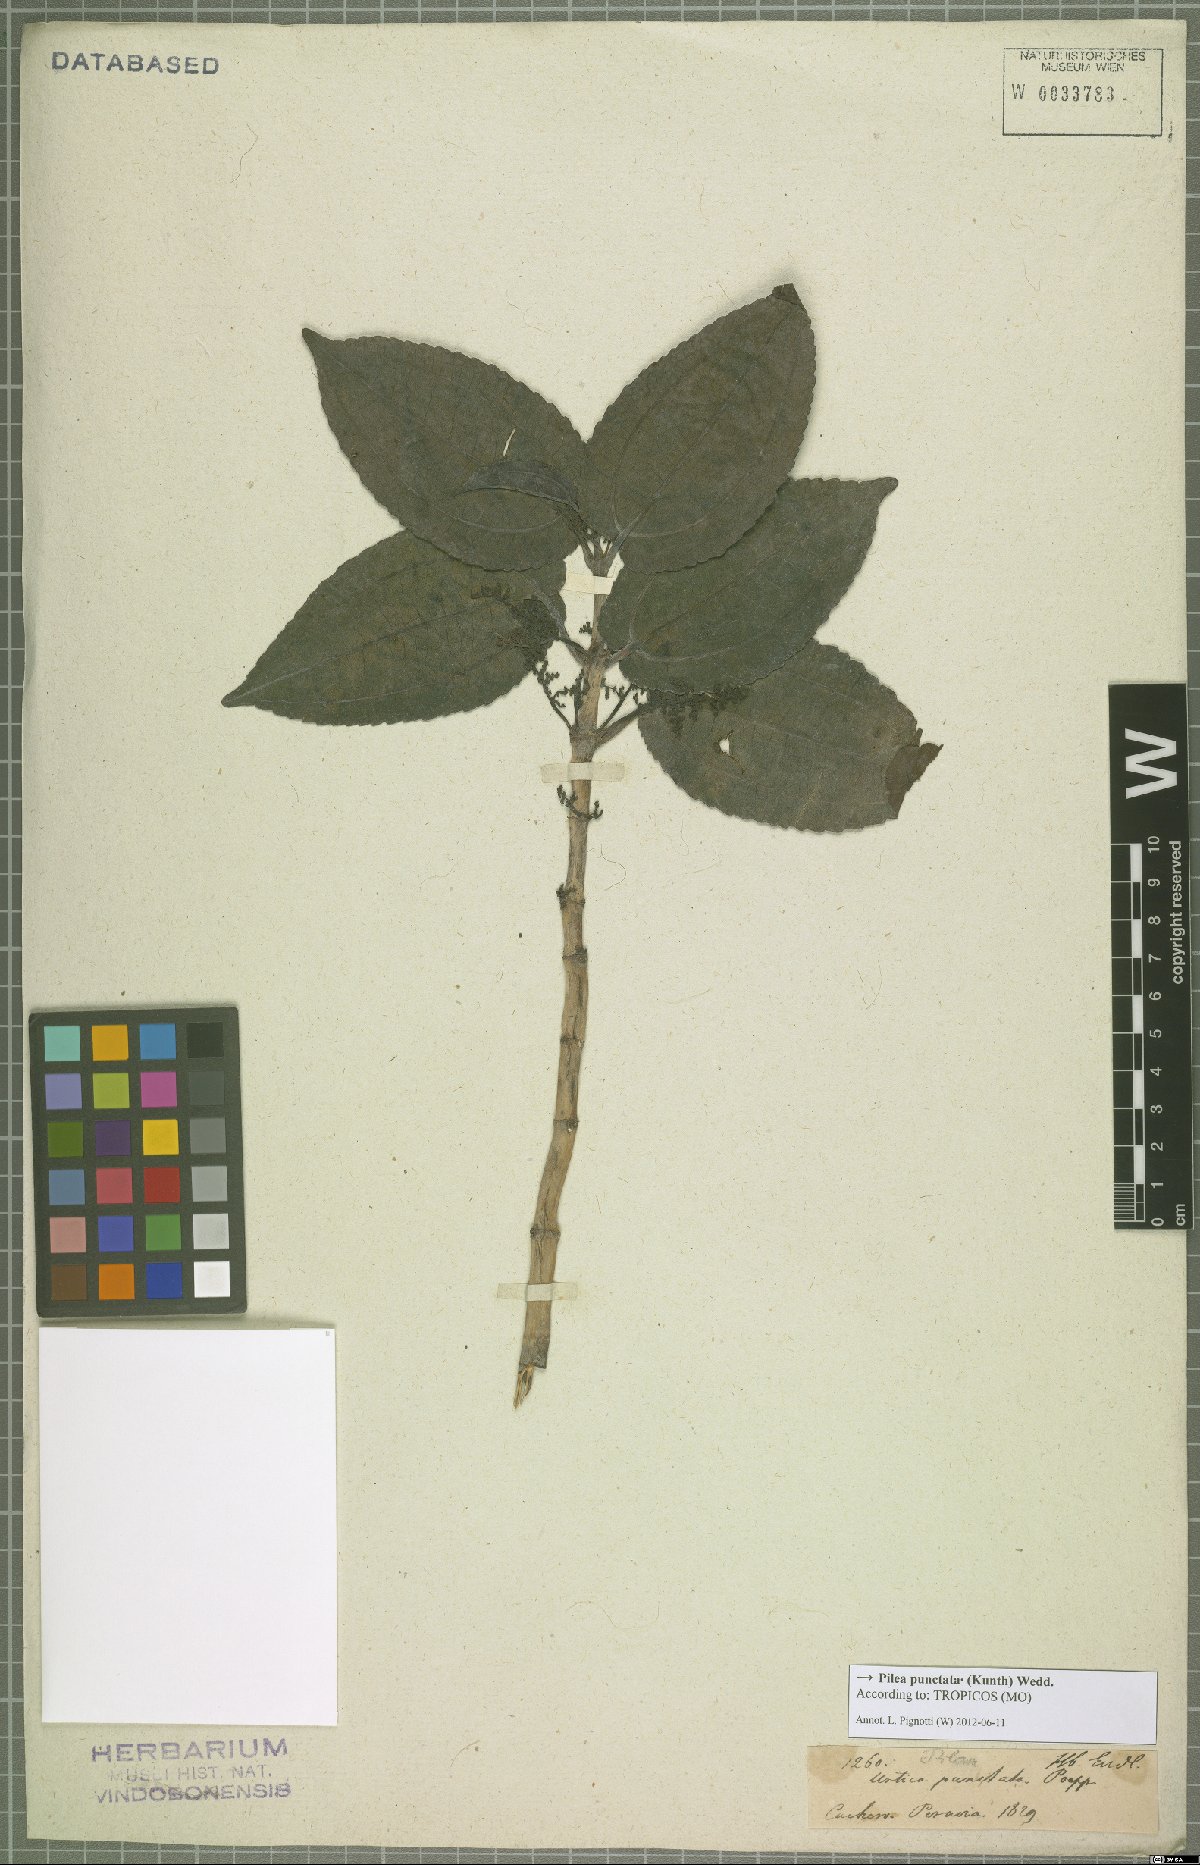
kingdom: Plantae
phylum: Tracheophyta
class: Magnoliopsida
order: Rosales
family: Urticaceae
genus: Pilea
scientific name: Pilea punctata
